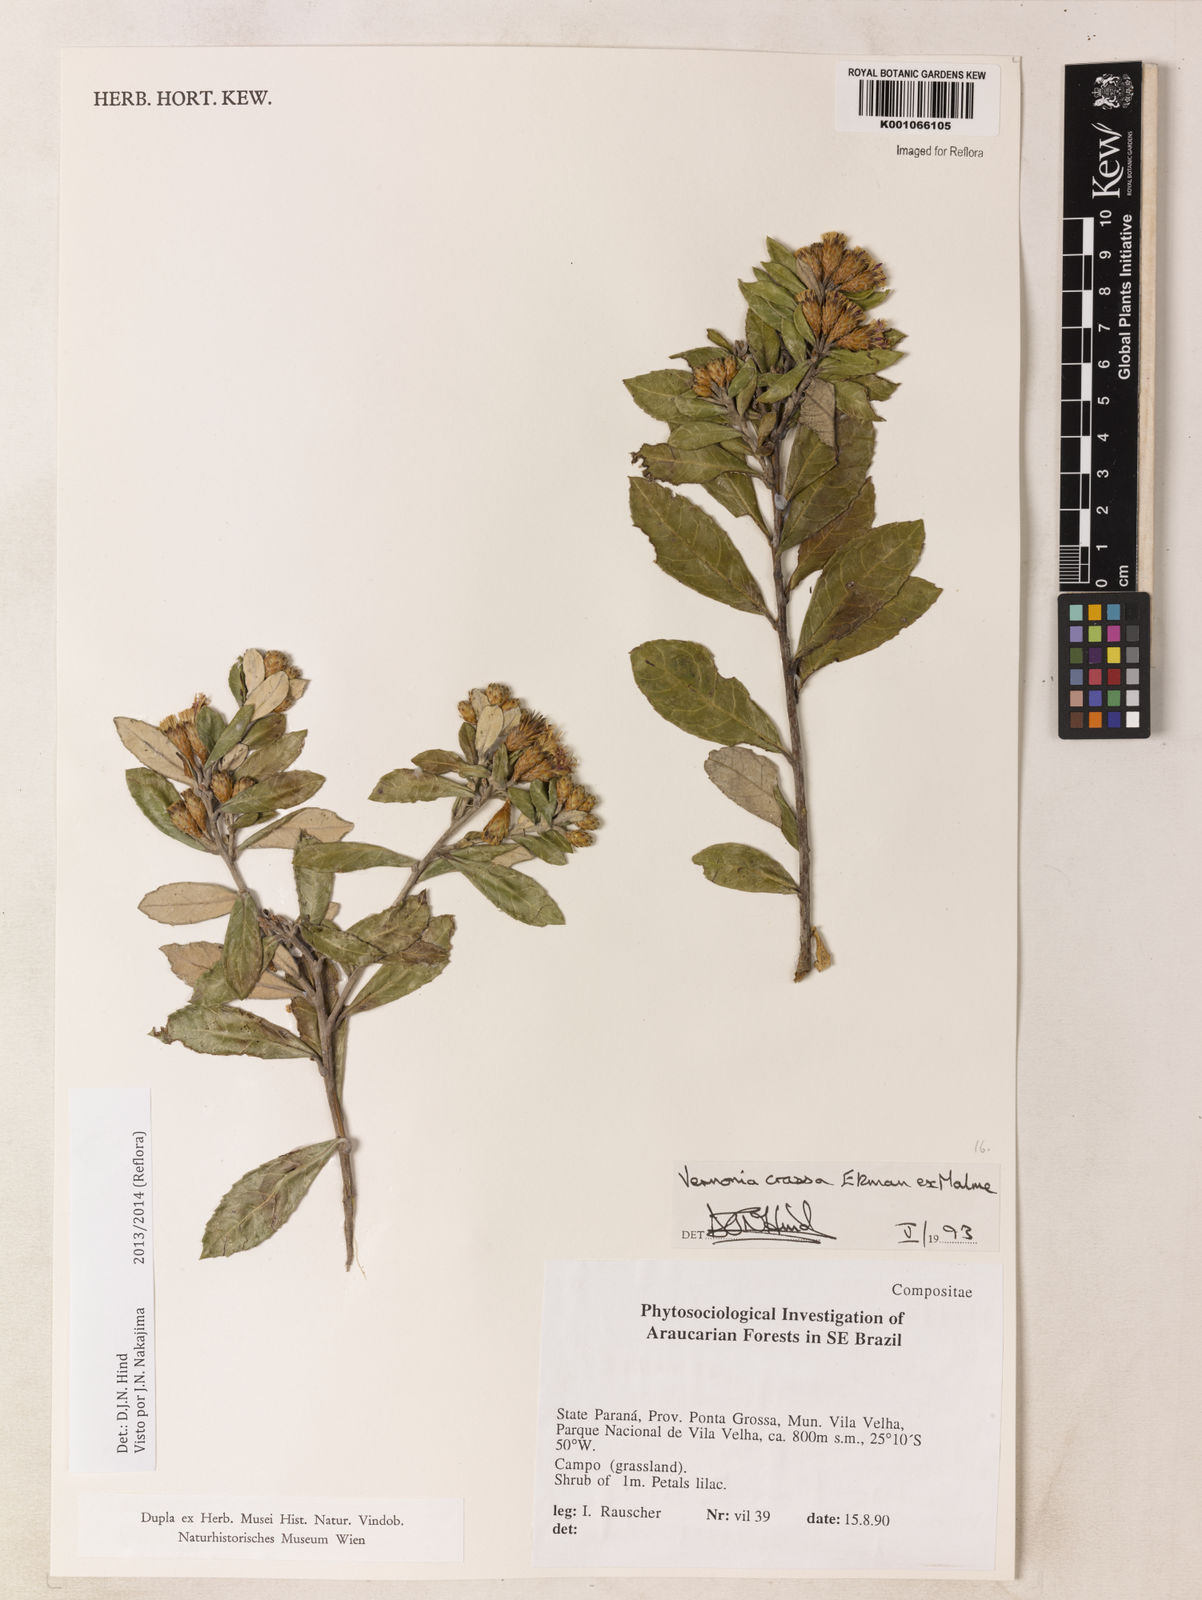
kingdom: Plantae
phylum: Tracheophyta
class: Magnoliopsida
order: Asterales
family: Asteraceae
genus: Vernonanthura
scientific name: Vernonanthura crassa
